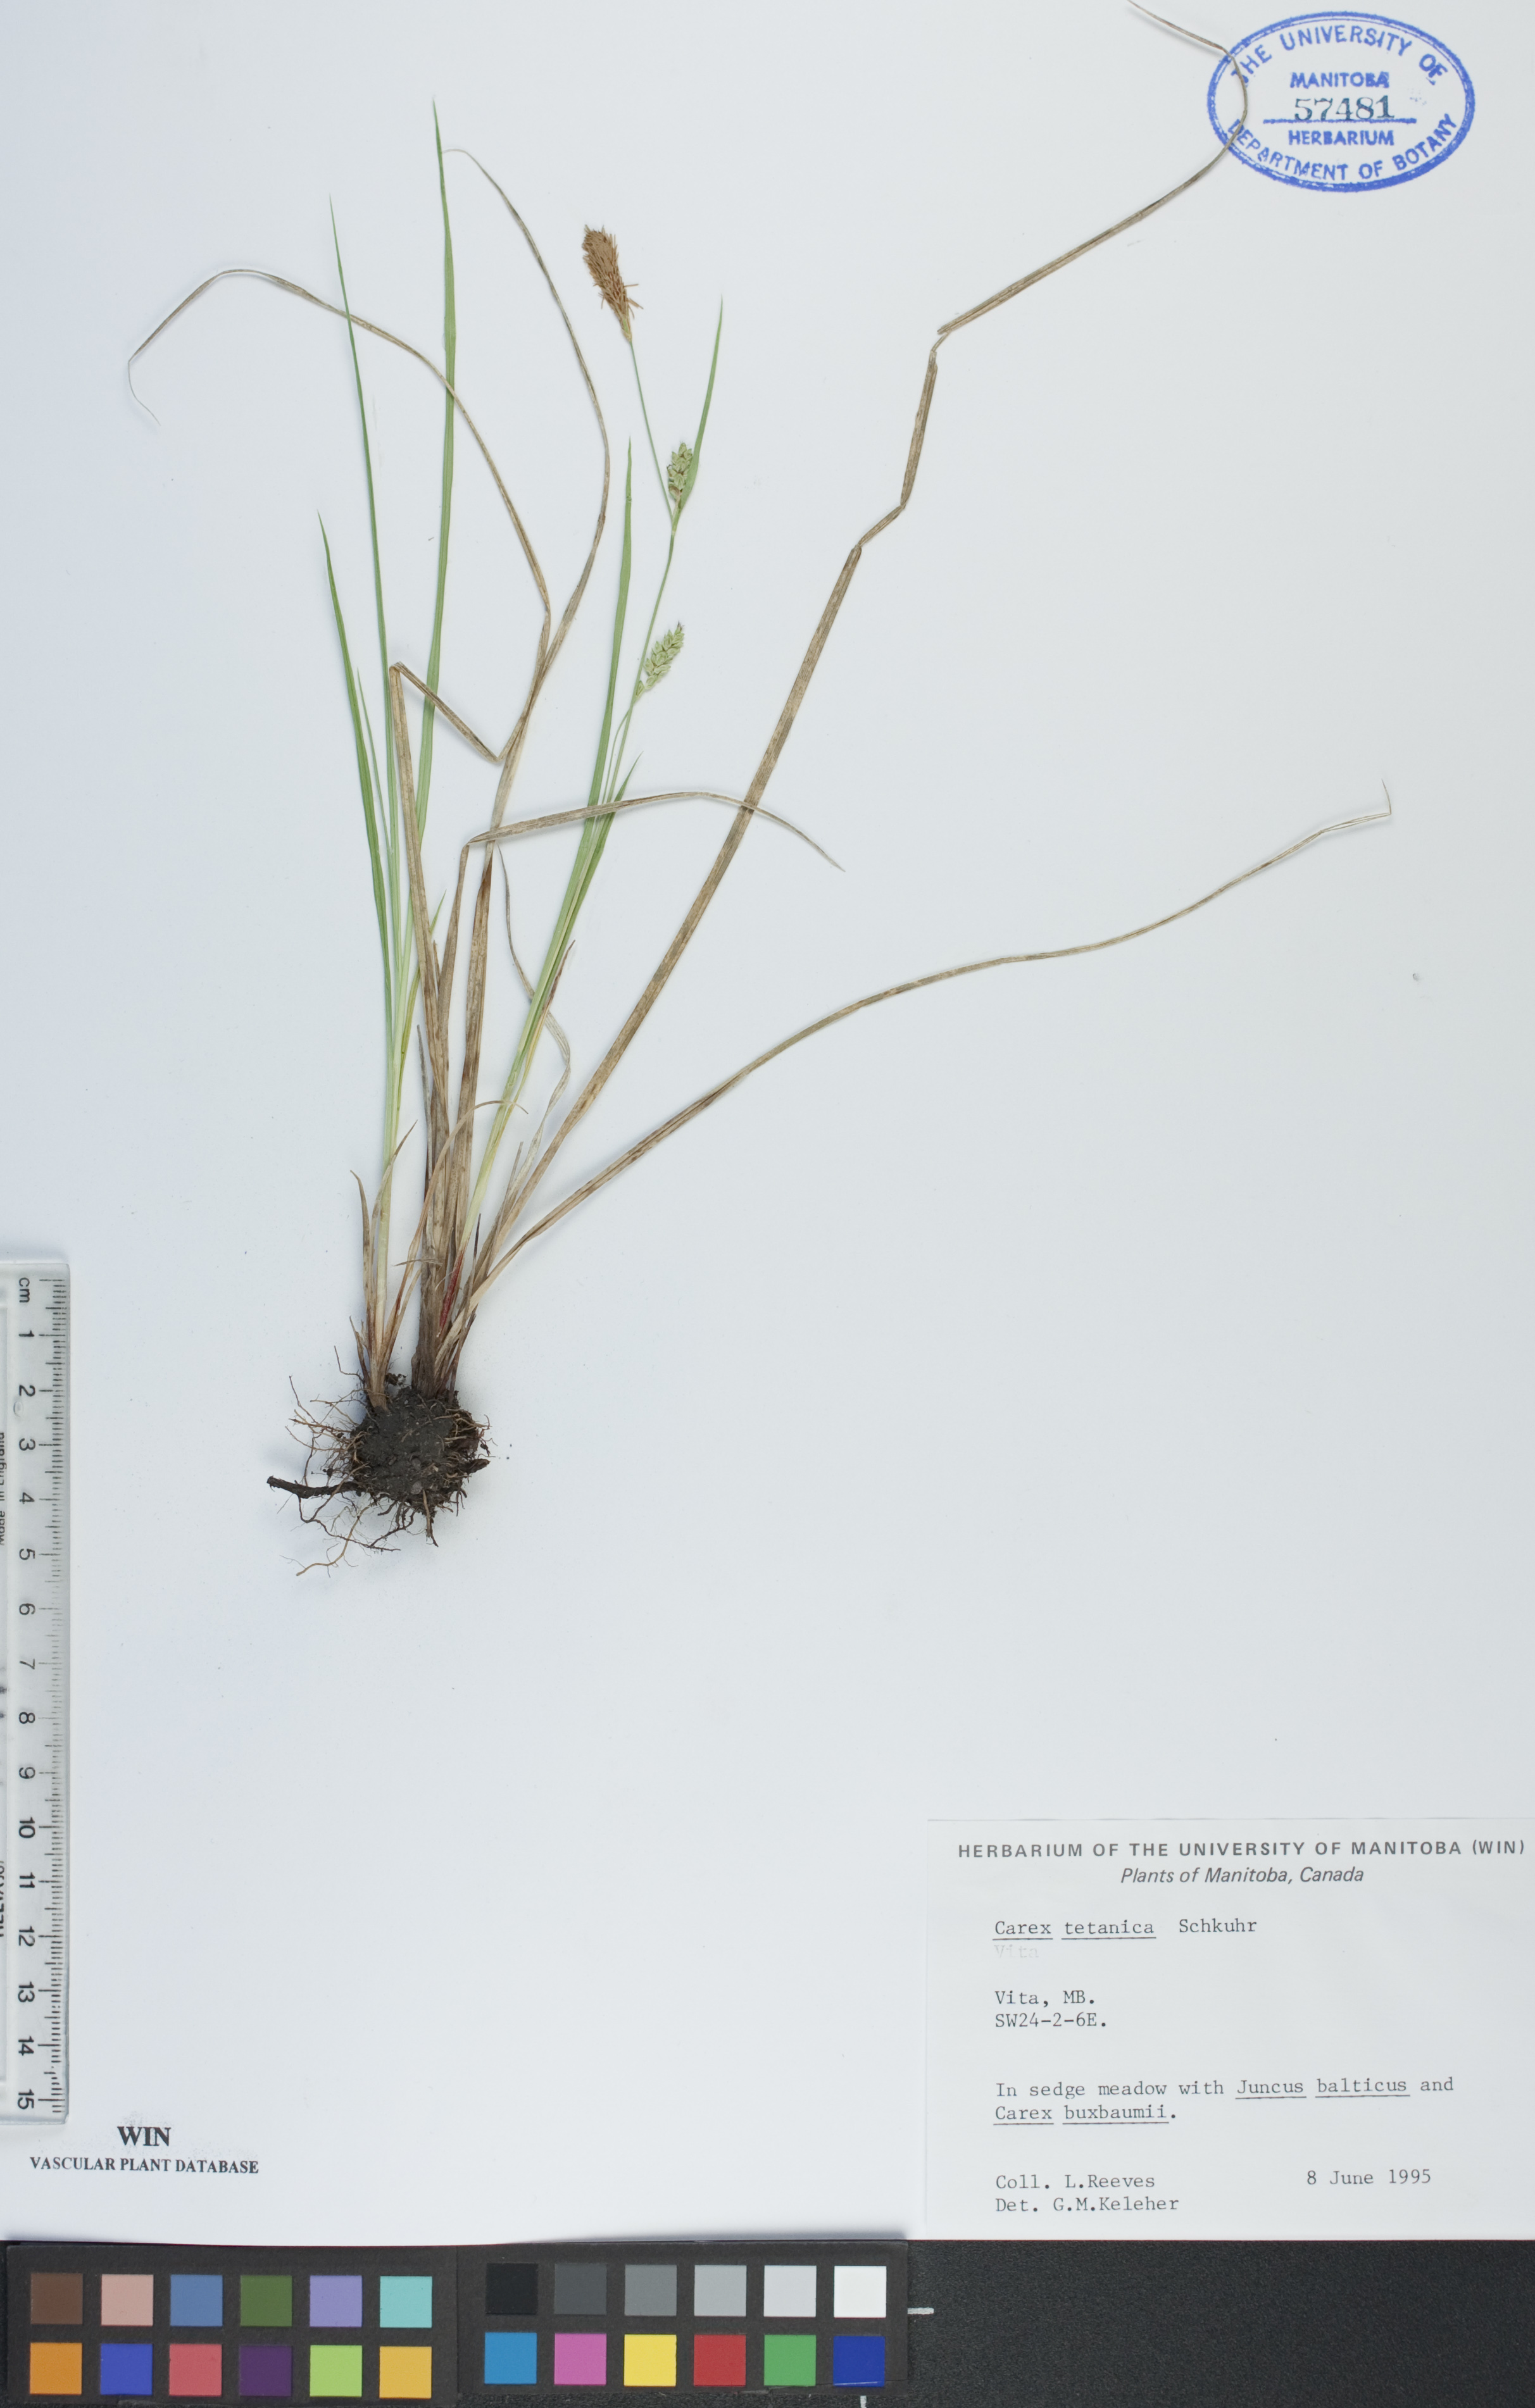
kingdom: Plantae
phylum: Tracheophyta
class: Liliopsida
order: Poales
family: Cyperaceae
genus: Carex
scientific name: Carex tetanica
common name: Rigid sedge
